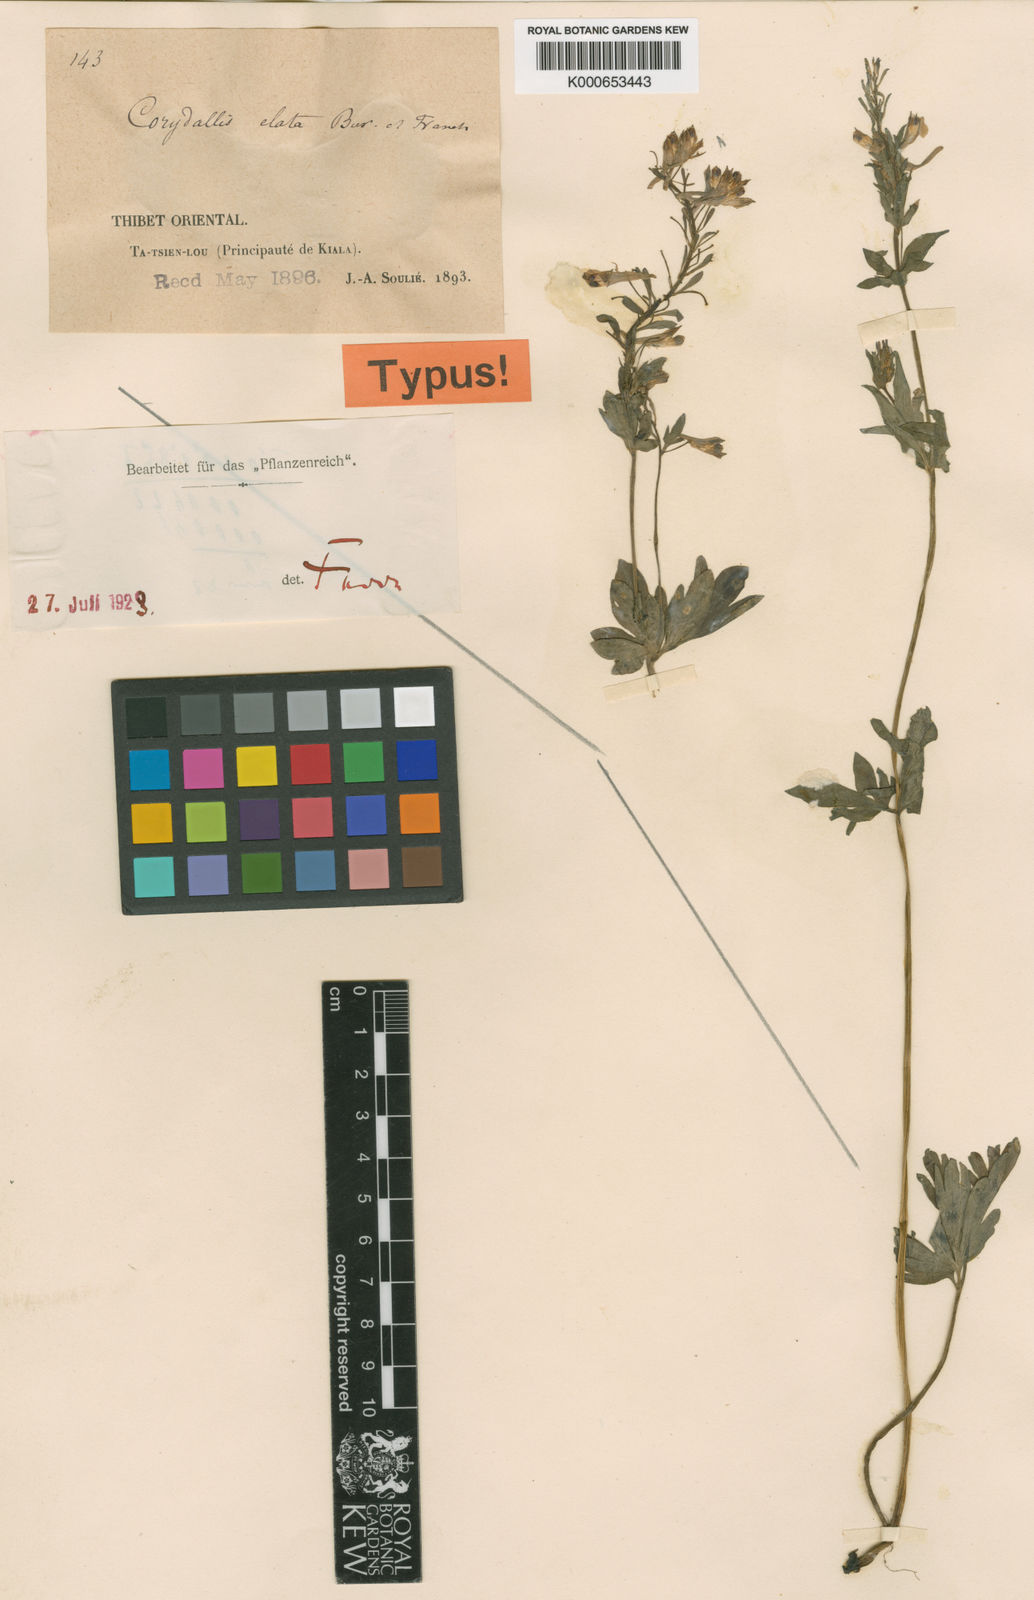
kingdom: Plantae
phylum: Tracheophyta
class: Magnoliopsida
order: Ranunculales
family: Papaveraceae
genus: Corydalis
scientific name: Corydalis elata
